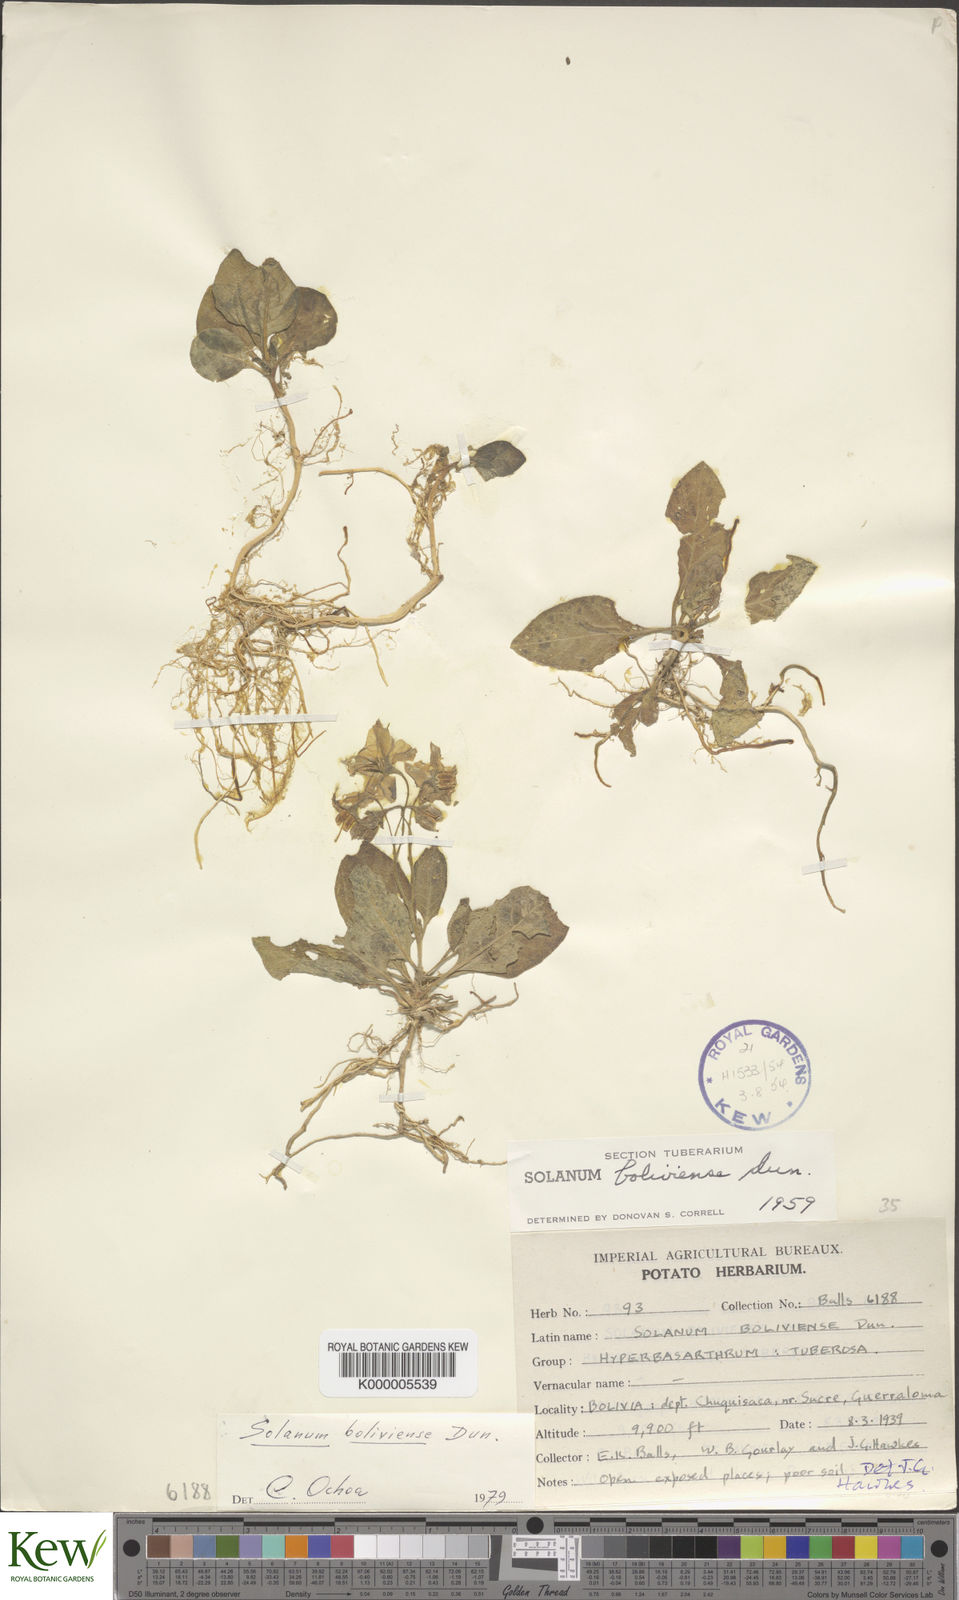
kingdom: Plantae
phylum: Tracheophyta
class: Magnoliopsida
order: Solanales
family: Solanaceae
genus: Solanum
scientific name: Solanum boliviense
